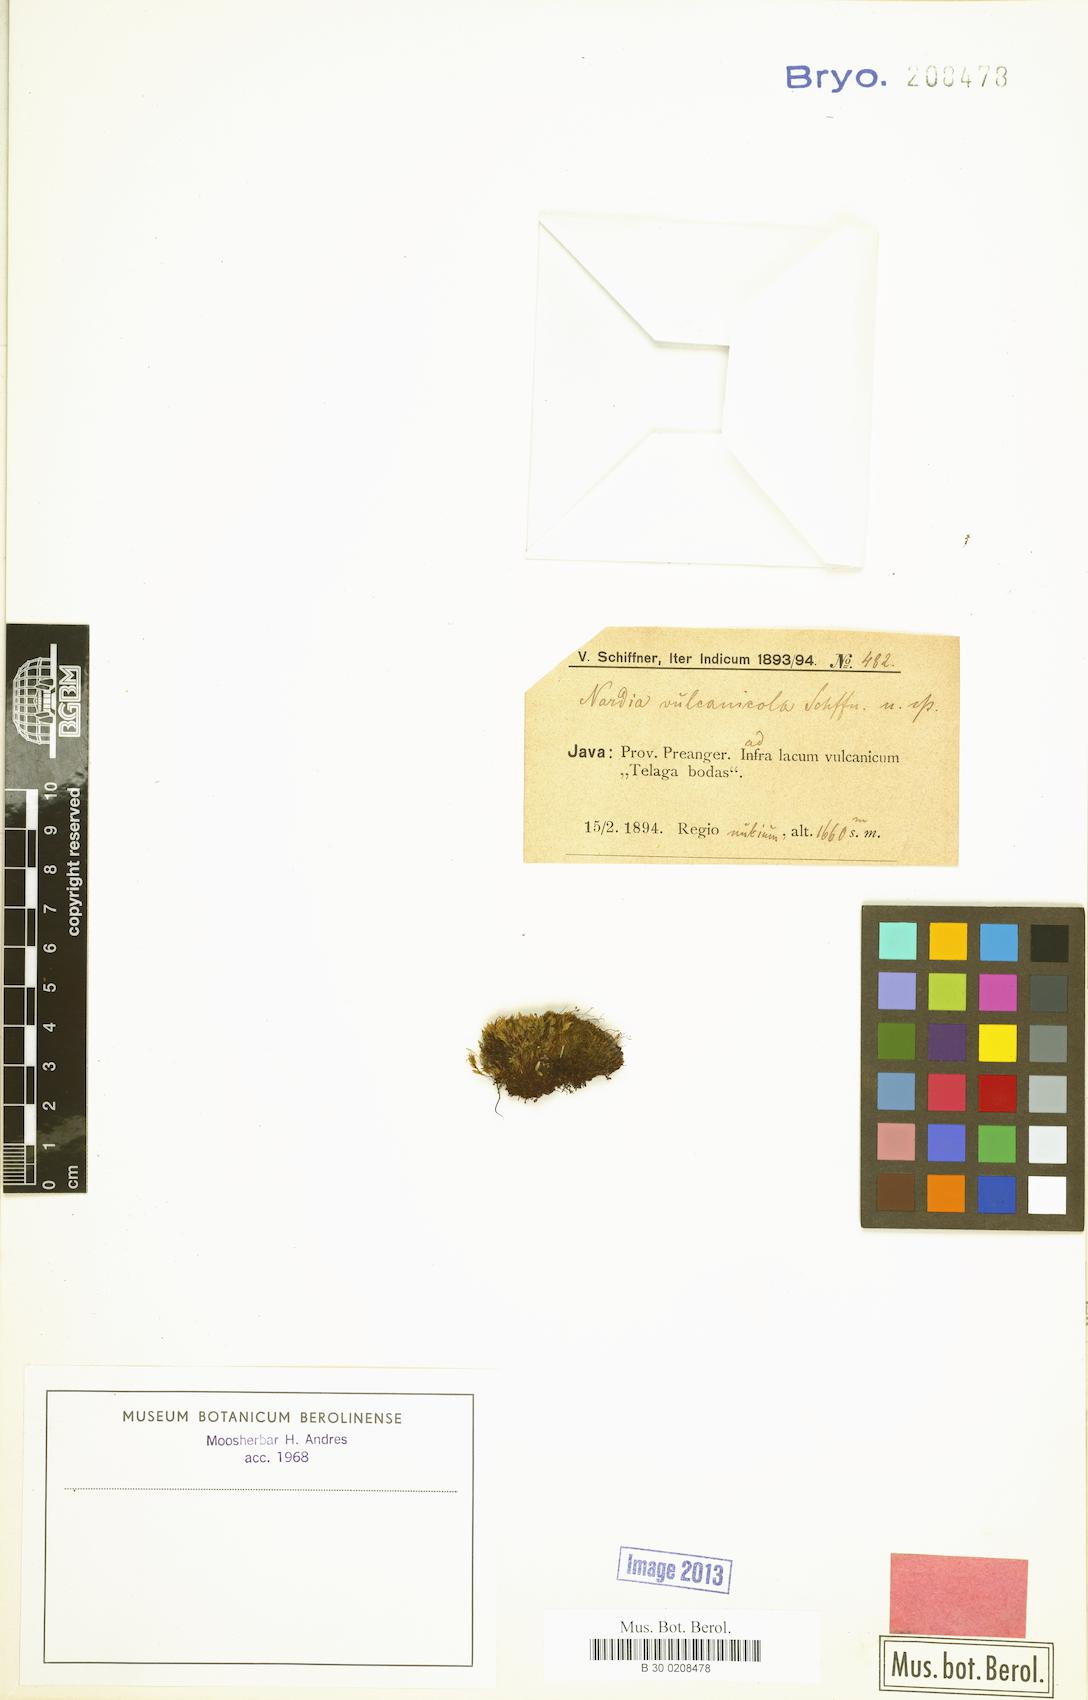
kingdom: Plantae
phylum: Marchantiophyta
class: Jungermanniopsida
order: Jungermanniales
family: Solenostomataceae
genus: Solenostoma
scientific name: Solenostoma vulcanicola
